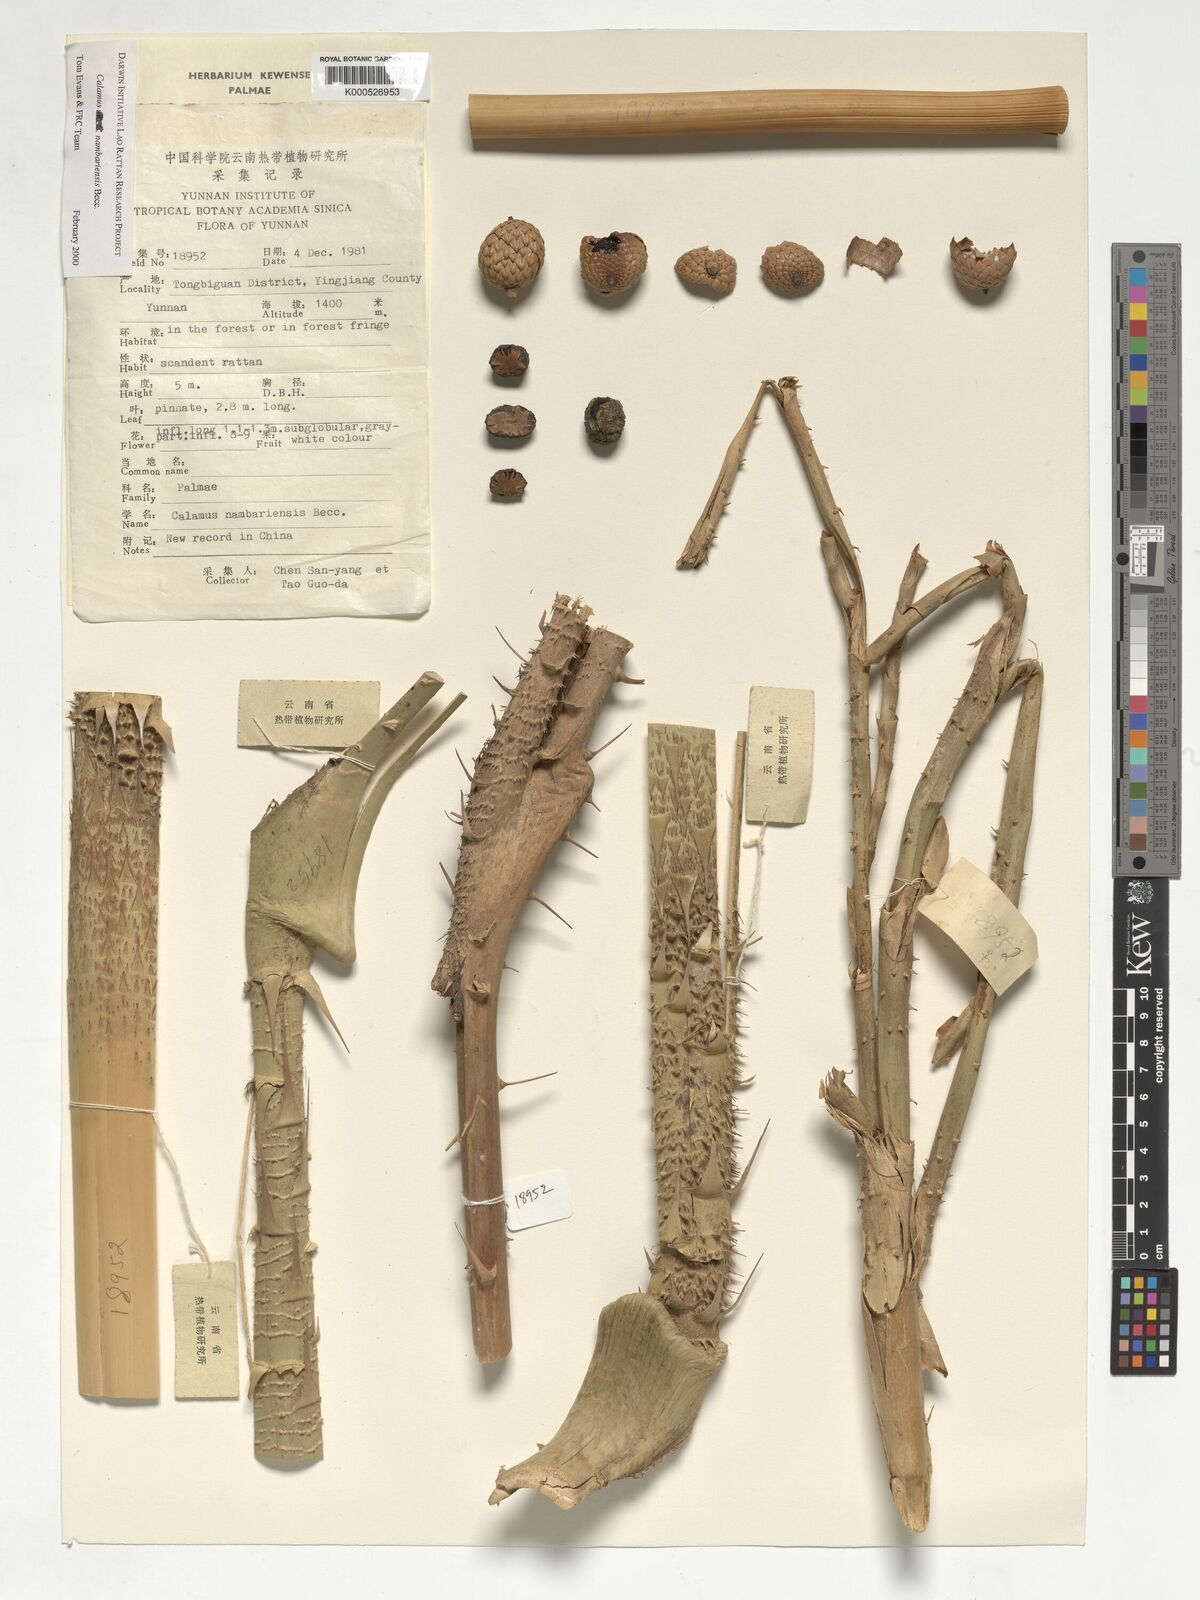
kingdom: Plantae
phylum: Tracheophyta
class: Liliopsida
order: Arecales
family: Arecaceae
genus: Calamus
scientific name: Calamus inermis
